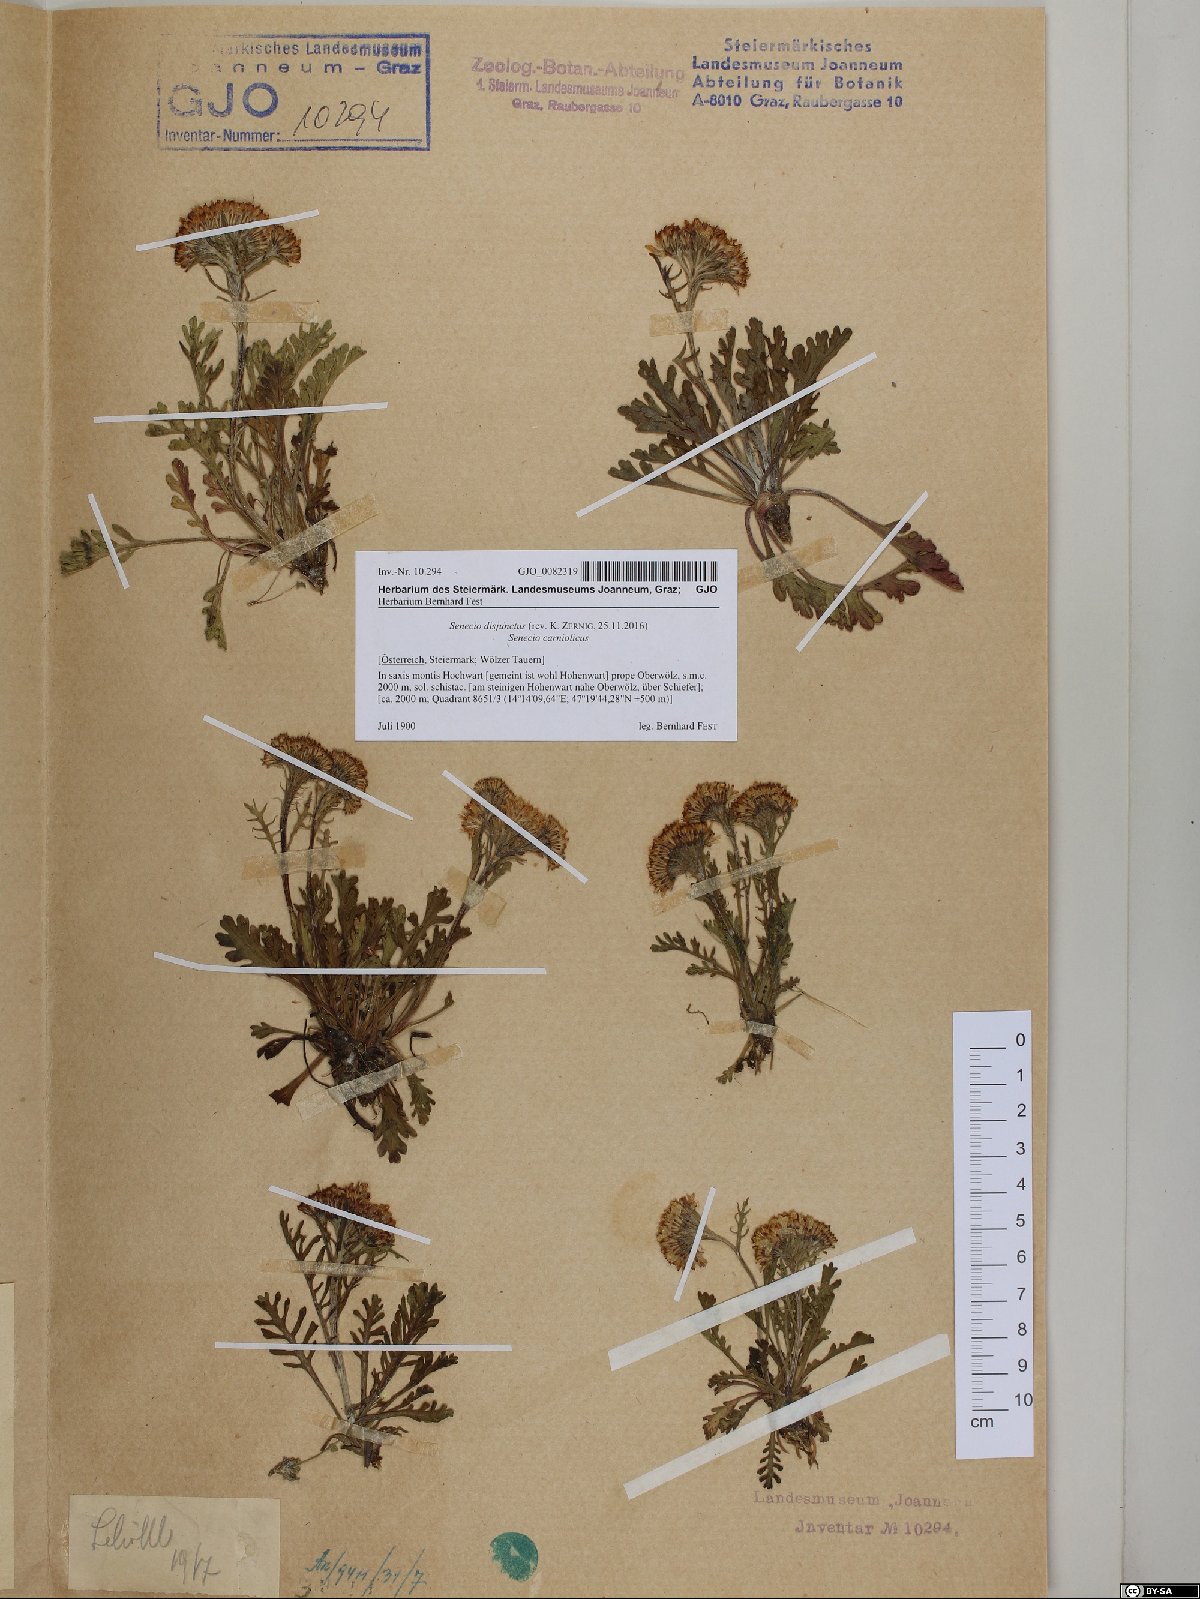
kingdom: Plantae
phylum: Tracheophyta
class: Magnoliopsida
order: Asterales
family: Asteraceae
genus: Jacobaea
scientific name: Jacobaea disjuncta
